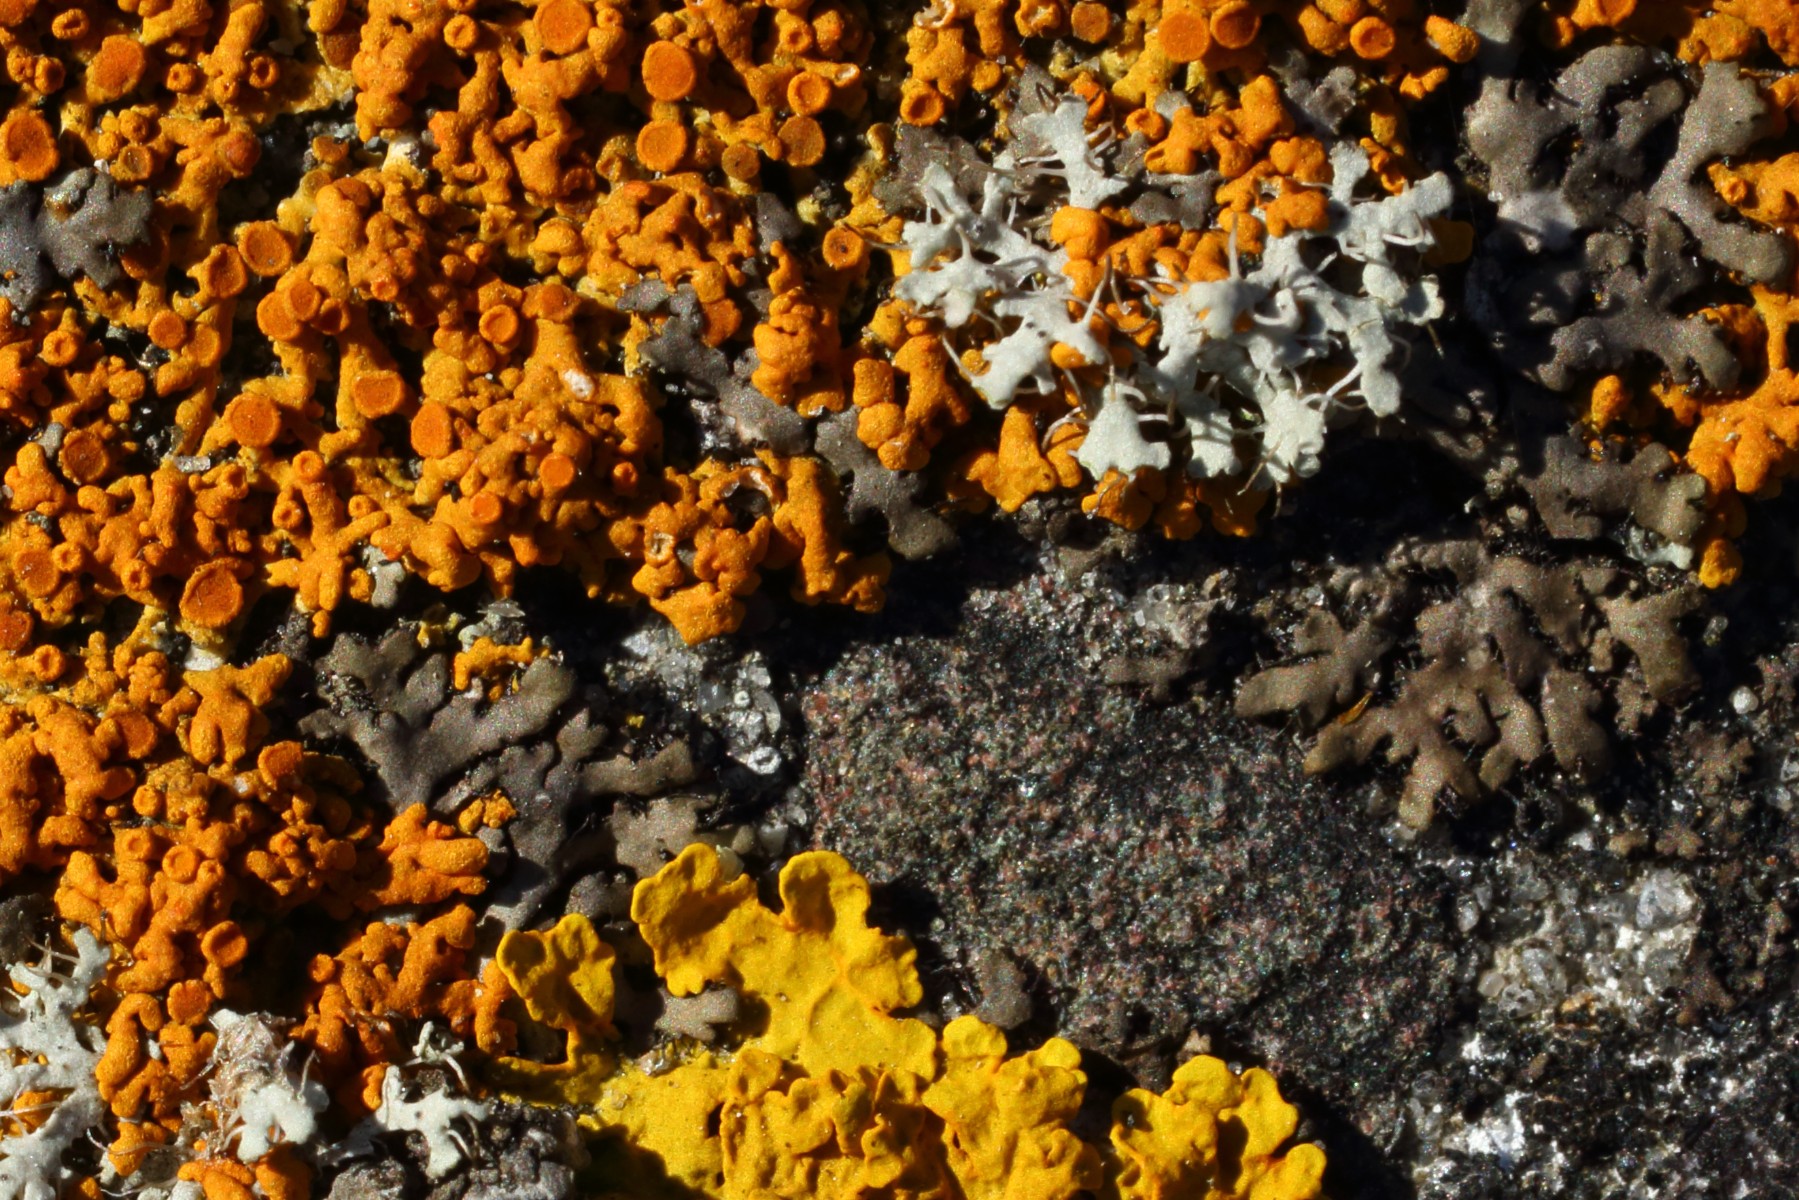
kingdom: Fungi
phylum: Ascomycota
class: Lecanoromycetes
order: Caliciales
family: Physciaceae
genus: Phaeophyscia
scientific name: Phaeophyscia orbicularis
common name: grågrøn rosetlav
